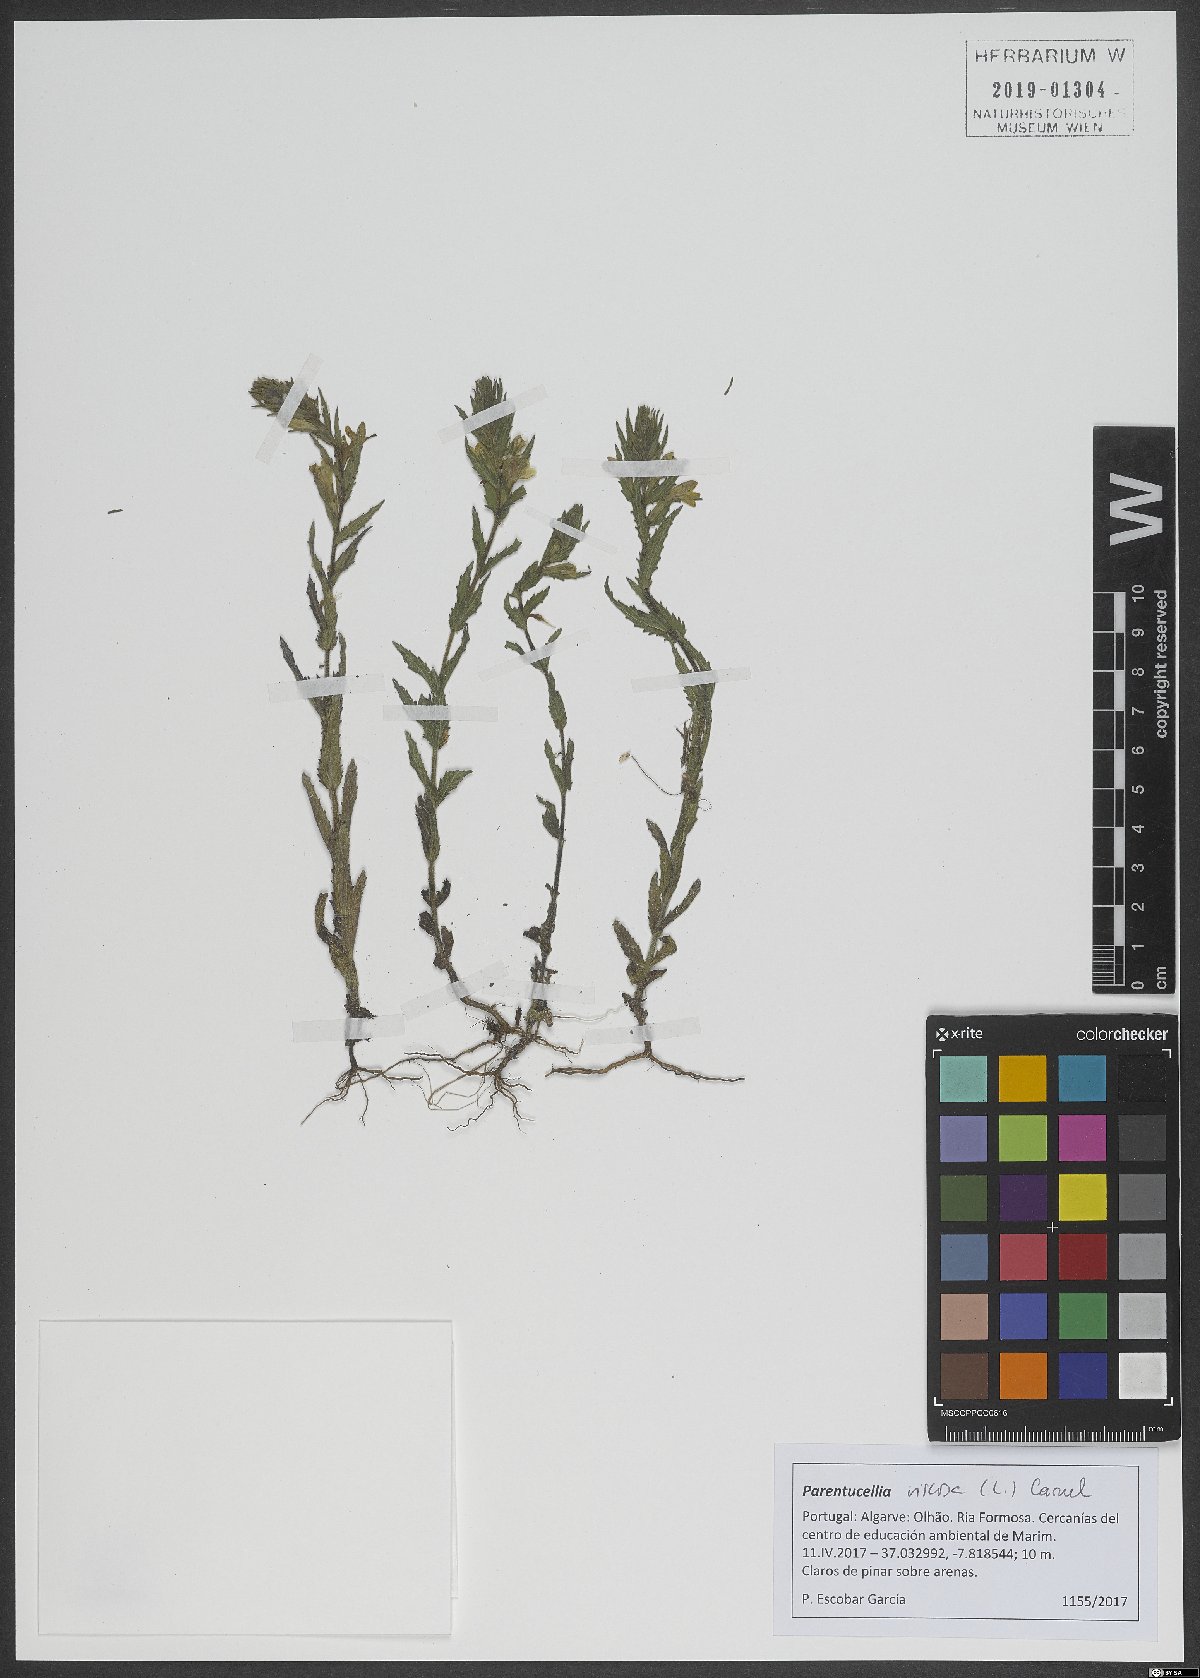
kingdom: Plantae
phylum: Tracheophyta
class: Magnoliopsida
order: Lamiales
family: Orobanchaceae
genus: Bellardia
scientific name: Bellardia viscosa
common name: Sticky parentucellia
